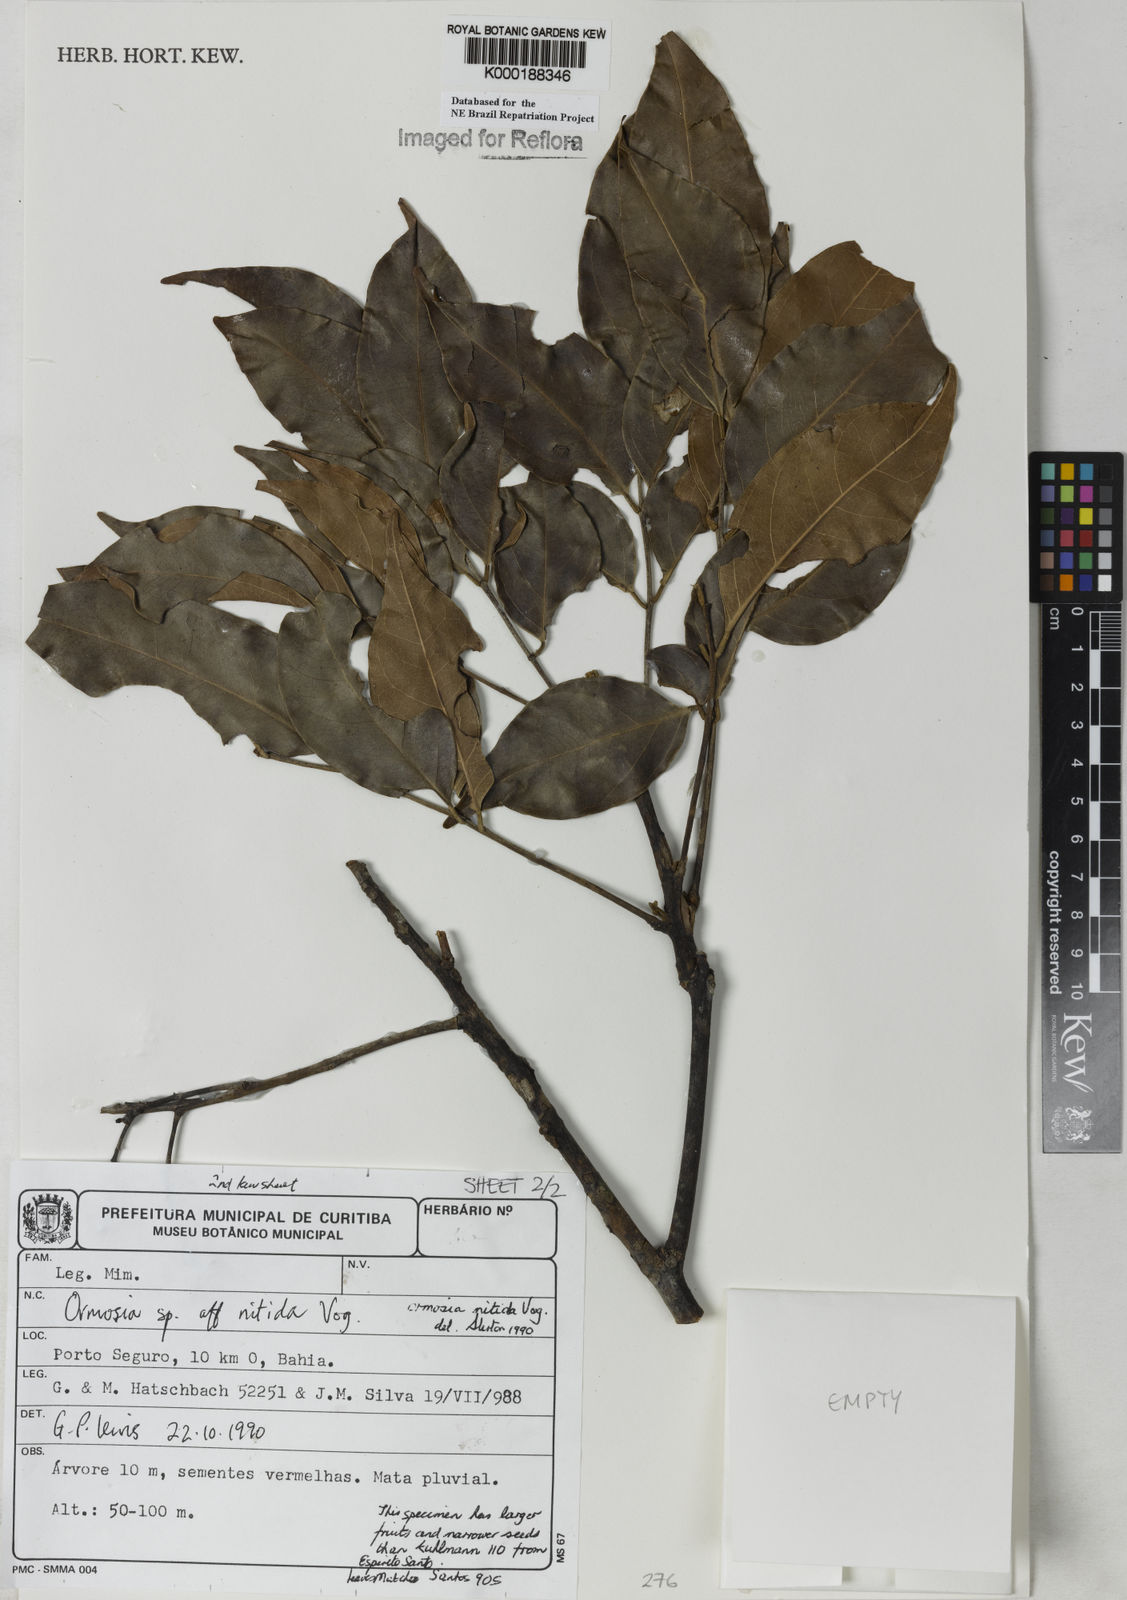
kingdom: Plantae
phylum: Tracheophyta
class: Magnoliopsida
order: Fabales
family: Fabaceae
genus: Ormosia
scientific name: Ormosia nitida
